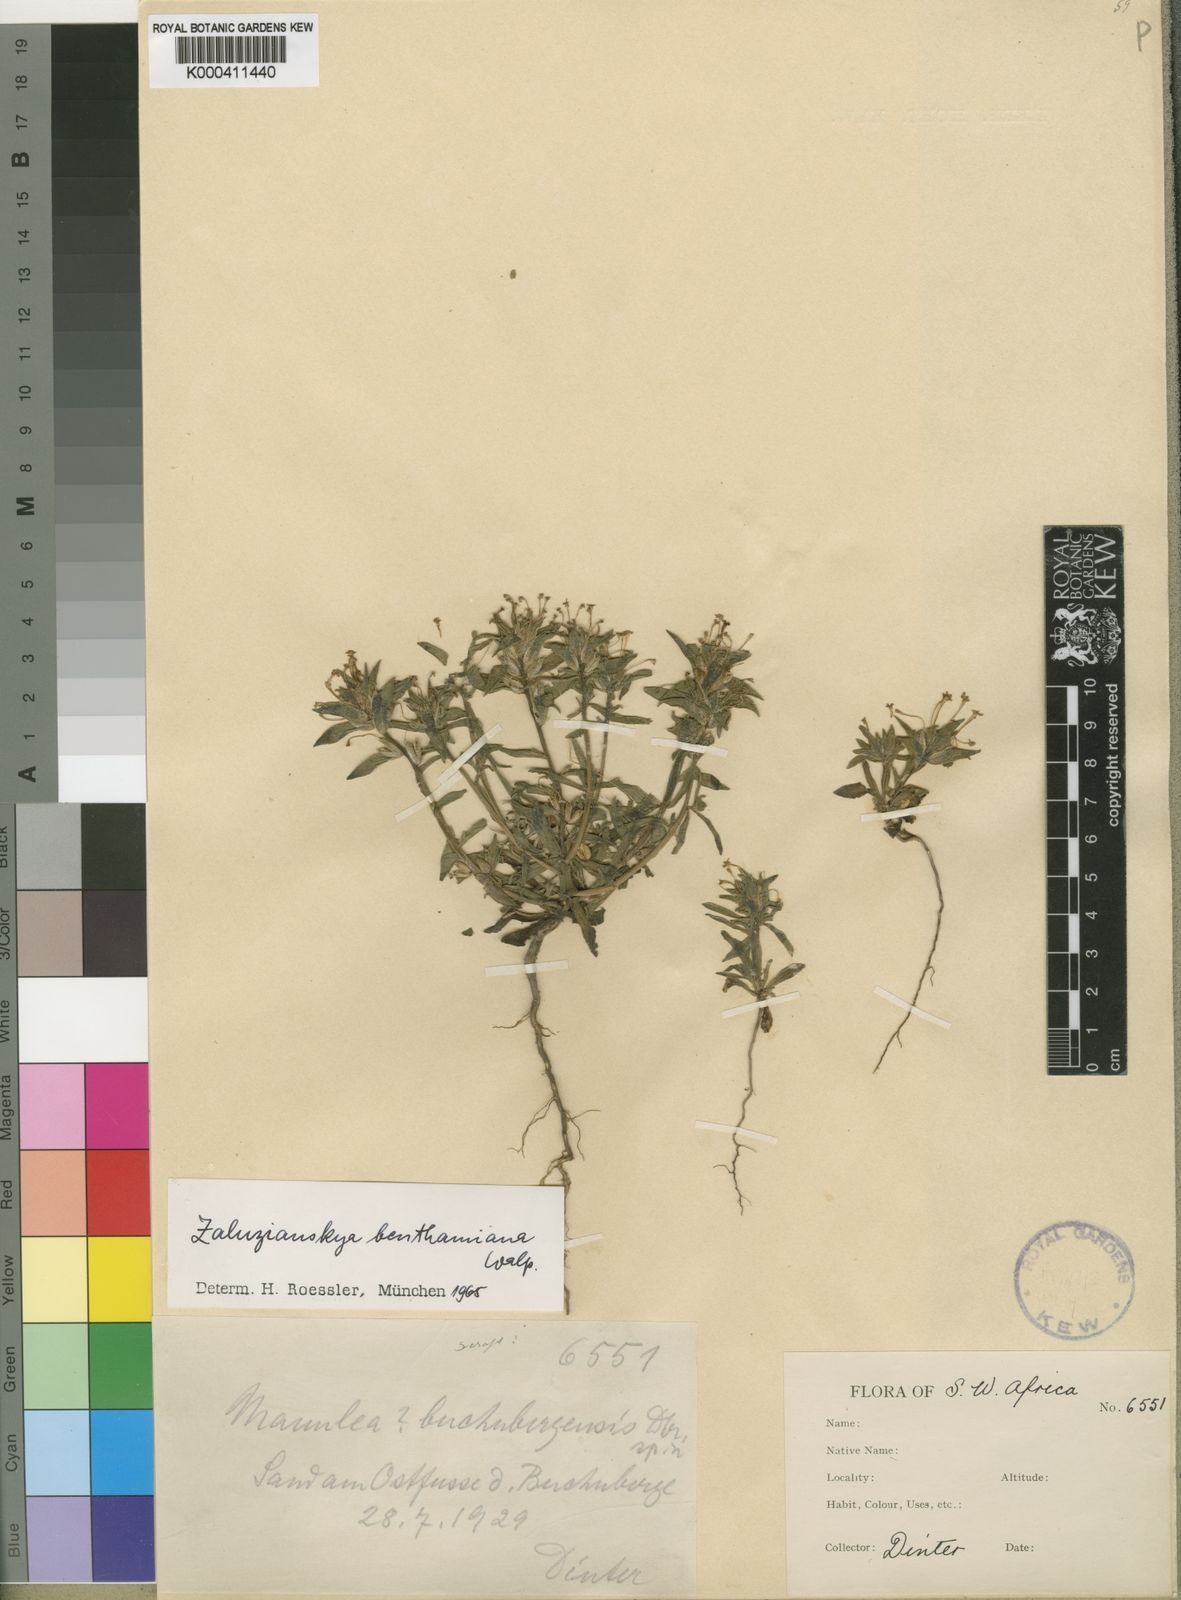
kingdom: Plantae
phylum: Tracheophyta
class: Magnoliopsida
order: Lamiales
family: Scrophulariaceae
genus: Zaluzianskya
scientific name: Zaluzianskya benthamiana
